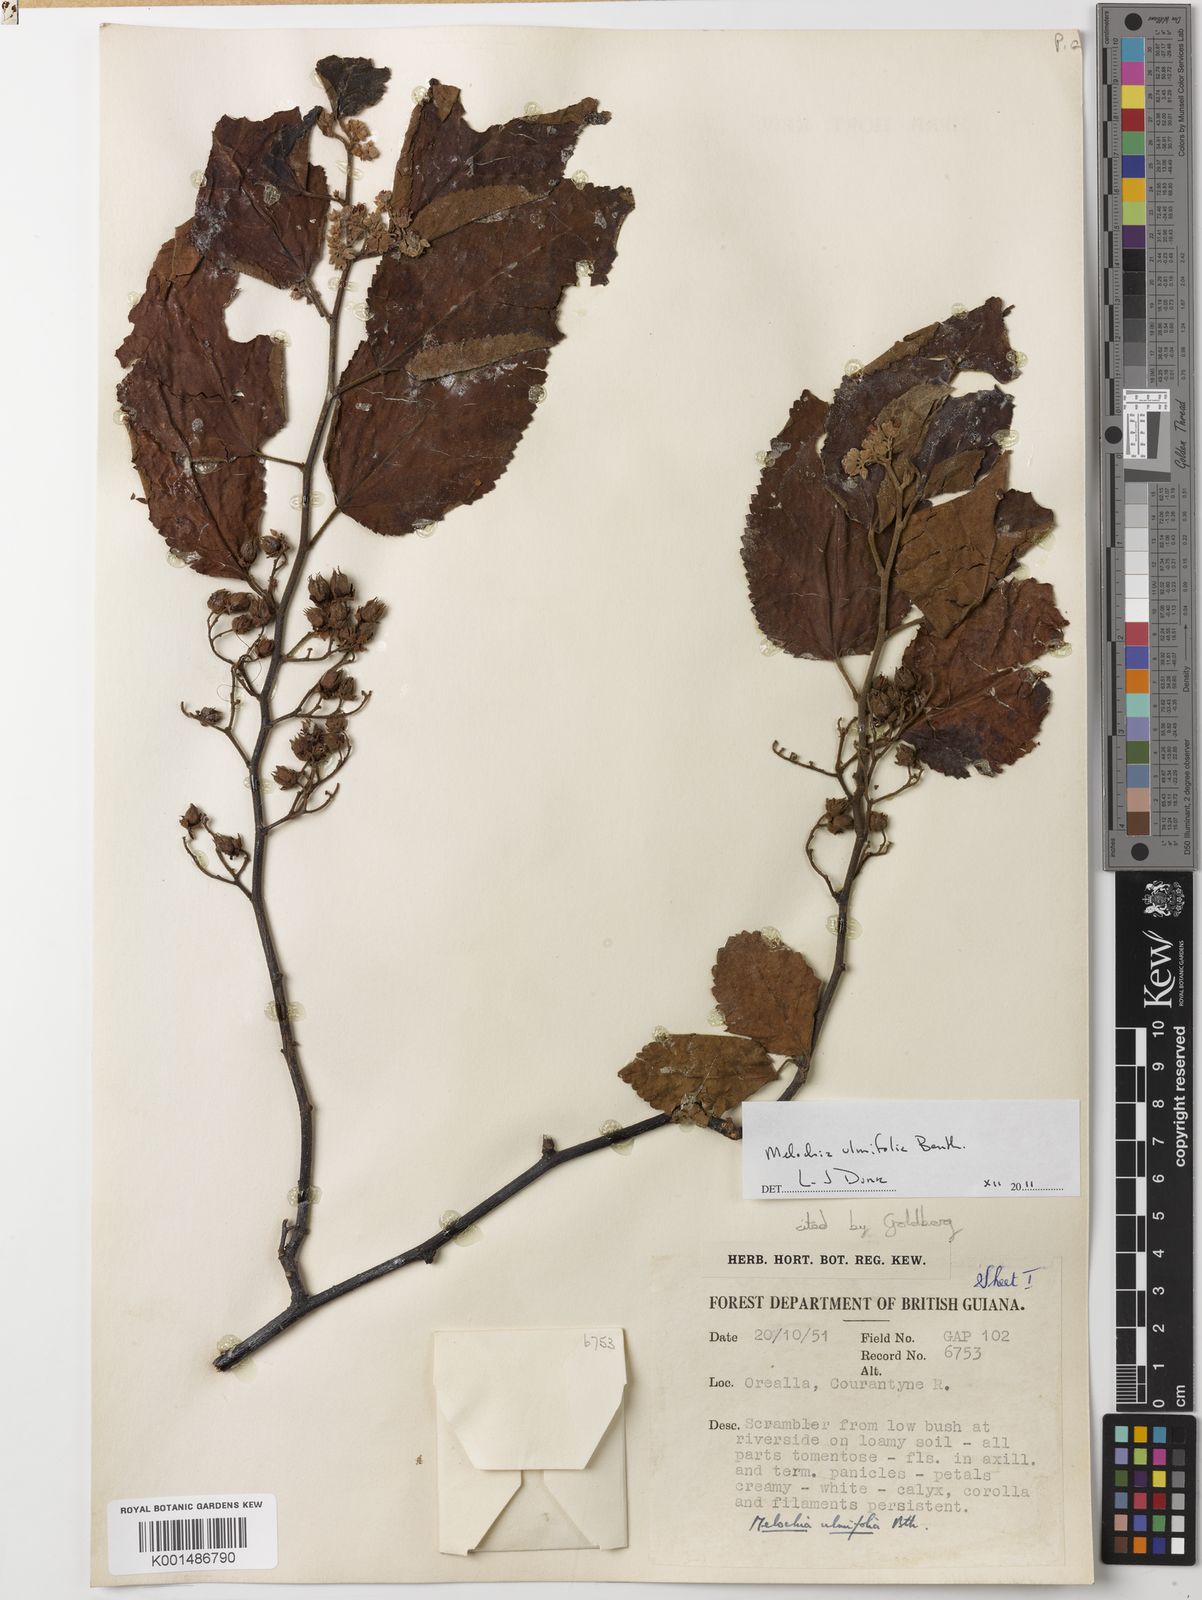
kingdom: Plantae
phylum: Tracheophyta
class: Magnoliopsida
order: Malvales
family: Malvaceae
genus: Melochia
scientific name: Melochia ulmifolia
